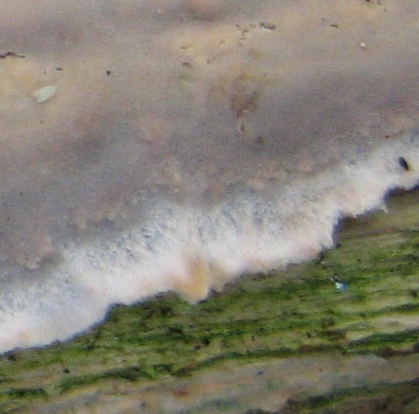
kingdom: Fungi
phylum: Basidiomycota
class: Agaricomycetes
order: Corticiales
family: Corticiaceae
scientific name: Corticiaceae
